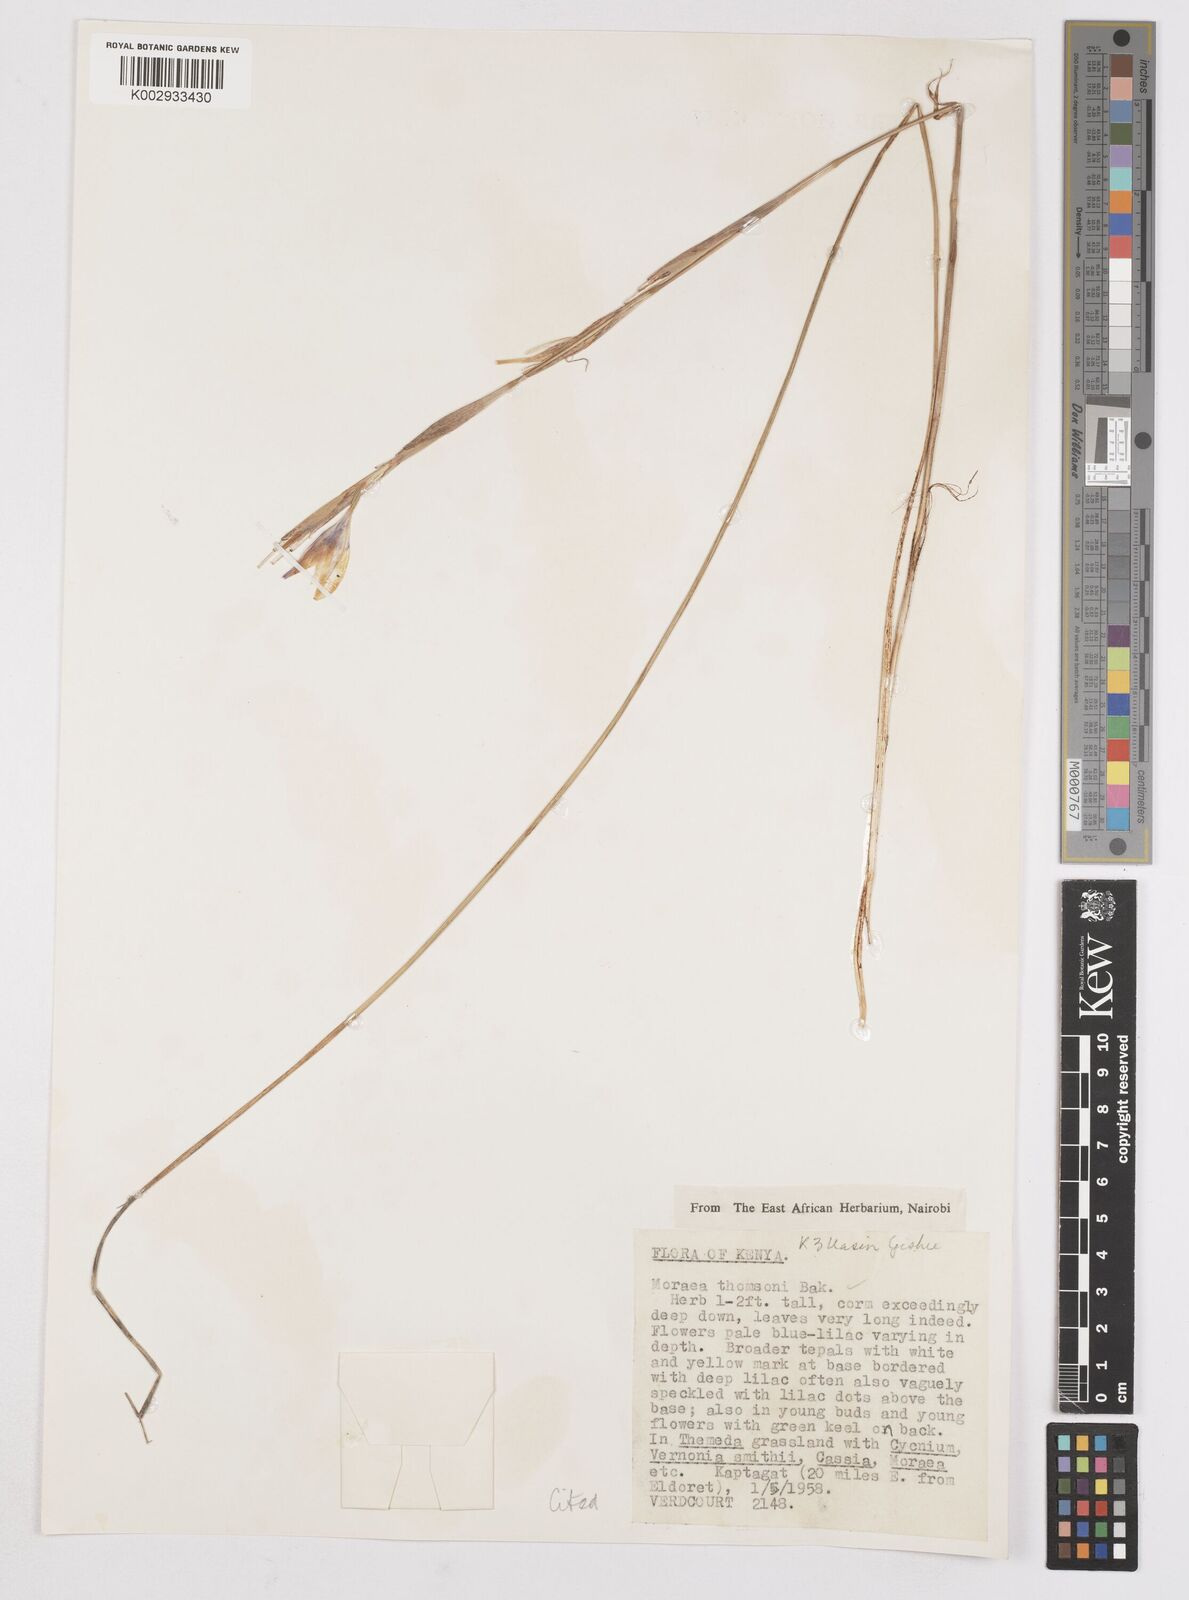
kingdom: Plantae
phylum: Tracheophyta
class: Liliopsida
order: Asparagales
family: Iridaceae
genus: Moraea
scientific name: Moraea thomsonii
